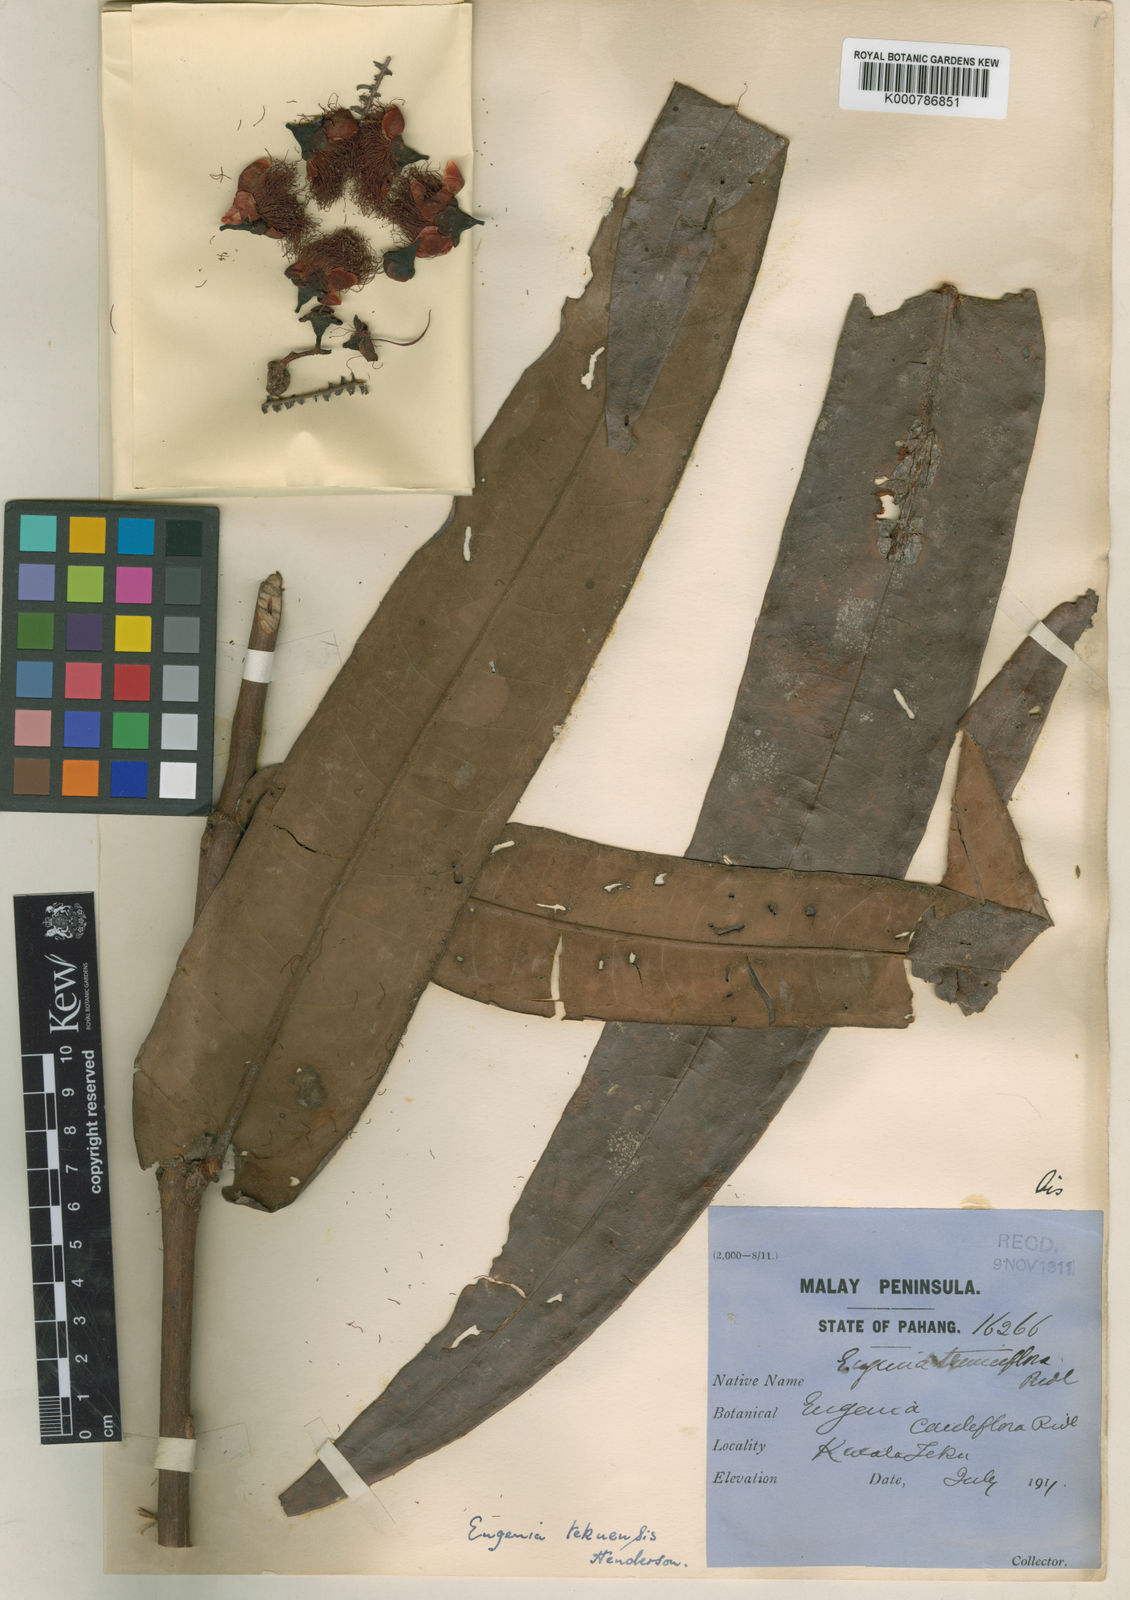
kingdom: Plantae
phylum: Tracheophyta
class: Magnoliopsida
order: Myrtales
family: Myrtaceae
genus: Syzygium
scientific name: Syzygium tekuense
